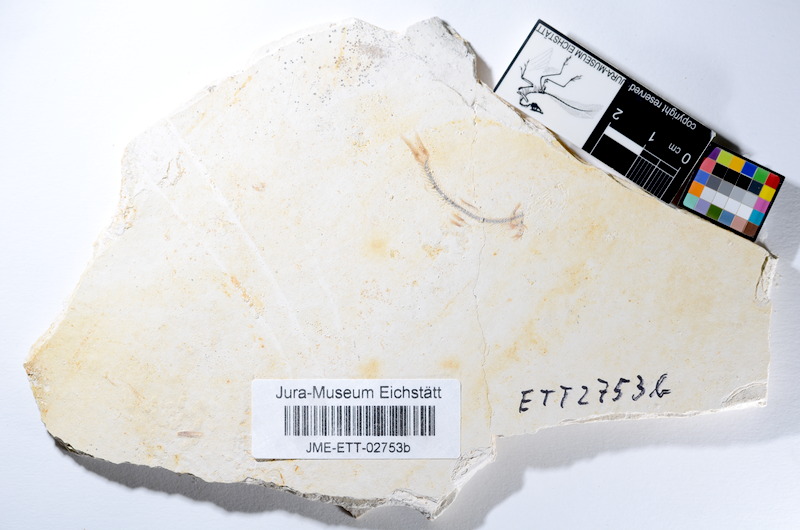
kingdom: Animalia
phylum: Chordata
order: Salmoniformes
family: Orthogonikleithridae
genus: Orthogonikleithrus
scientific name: Orthogonikleithrus hoelli
